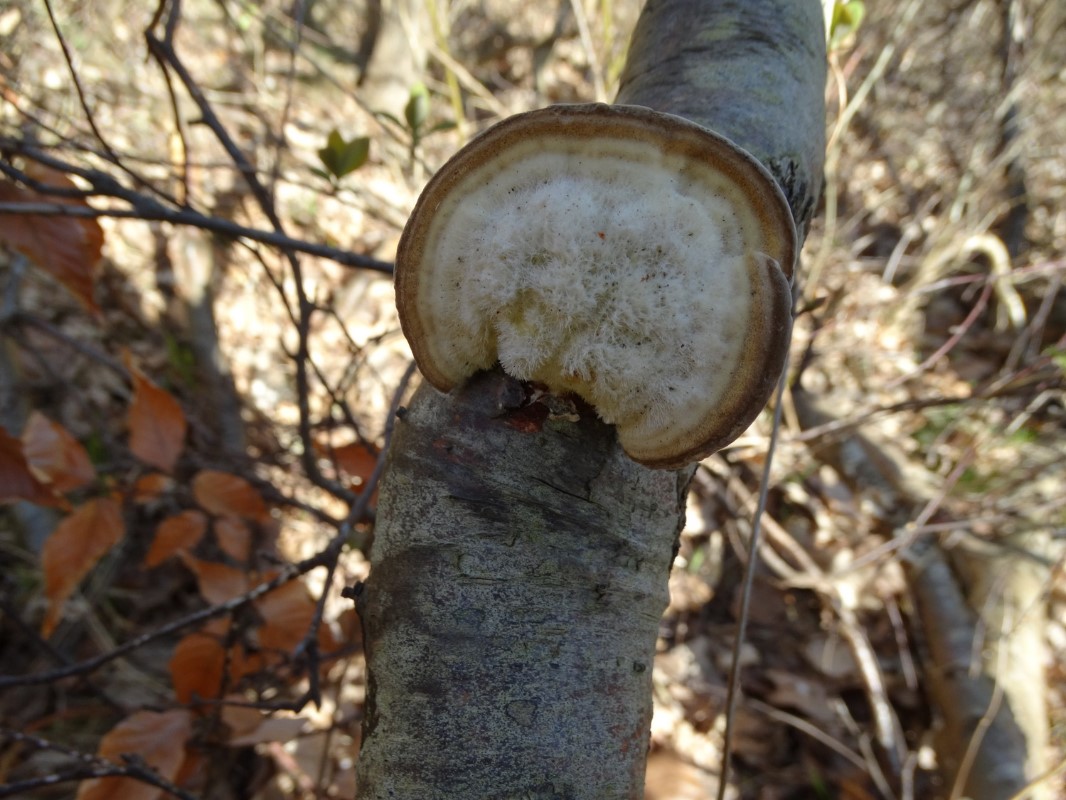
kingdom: Fungi
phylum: Basidiomycota
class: Agaricomycetes
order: Polyporales
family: Polyporaceae
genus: Trametes
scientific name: Trametes hirsuta
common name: håret læderporesvamp
